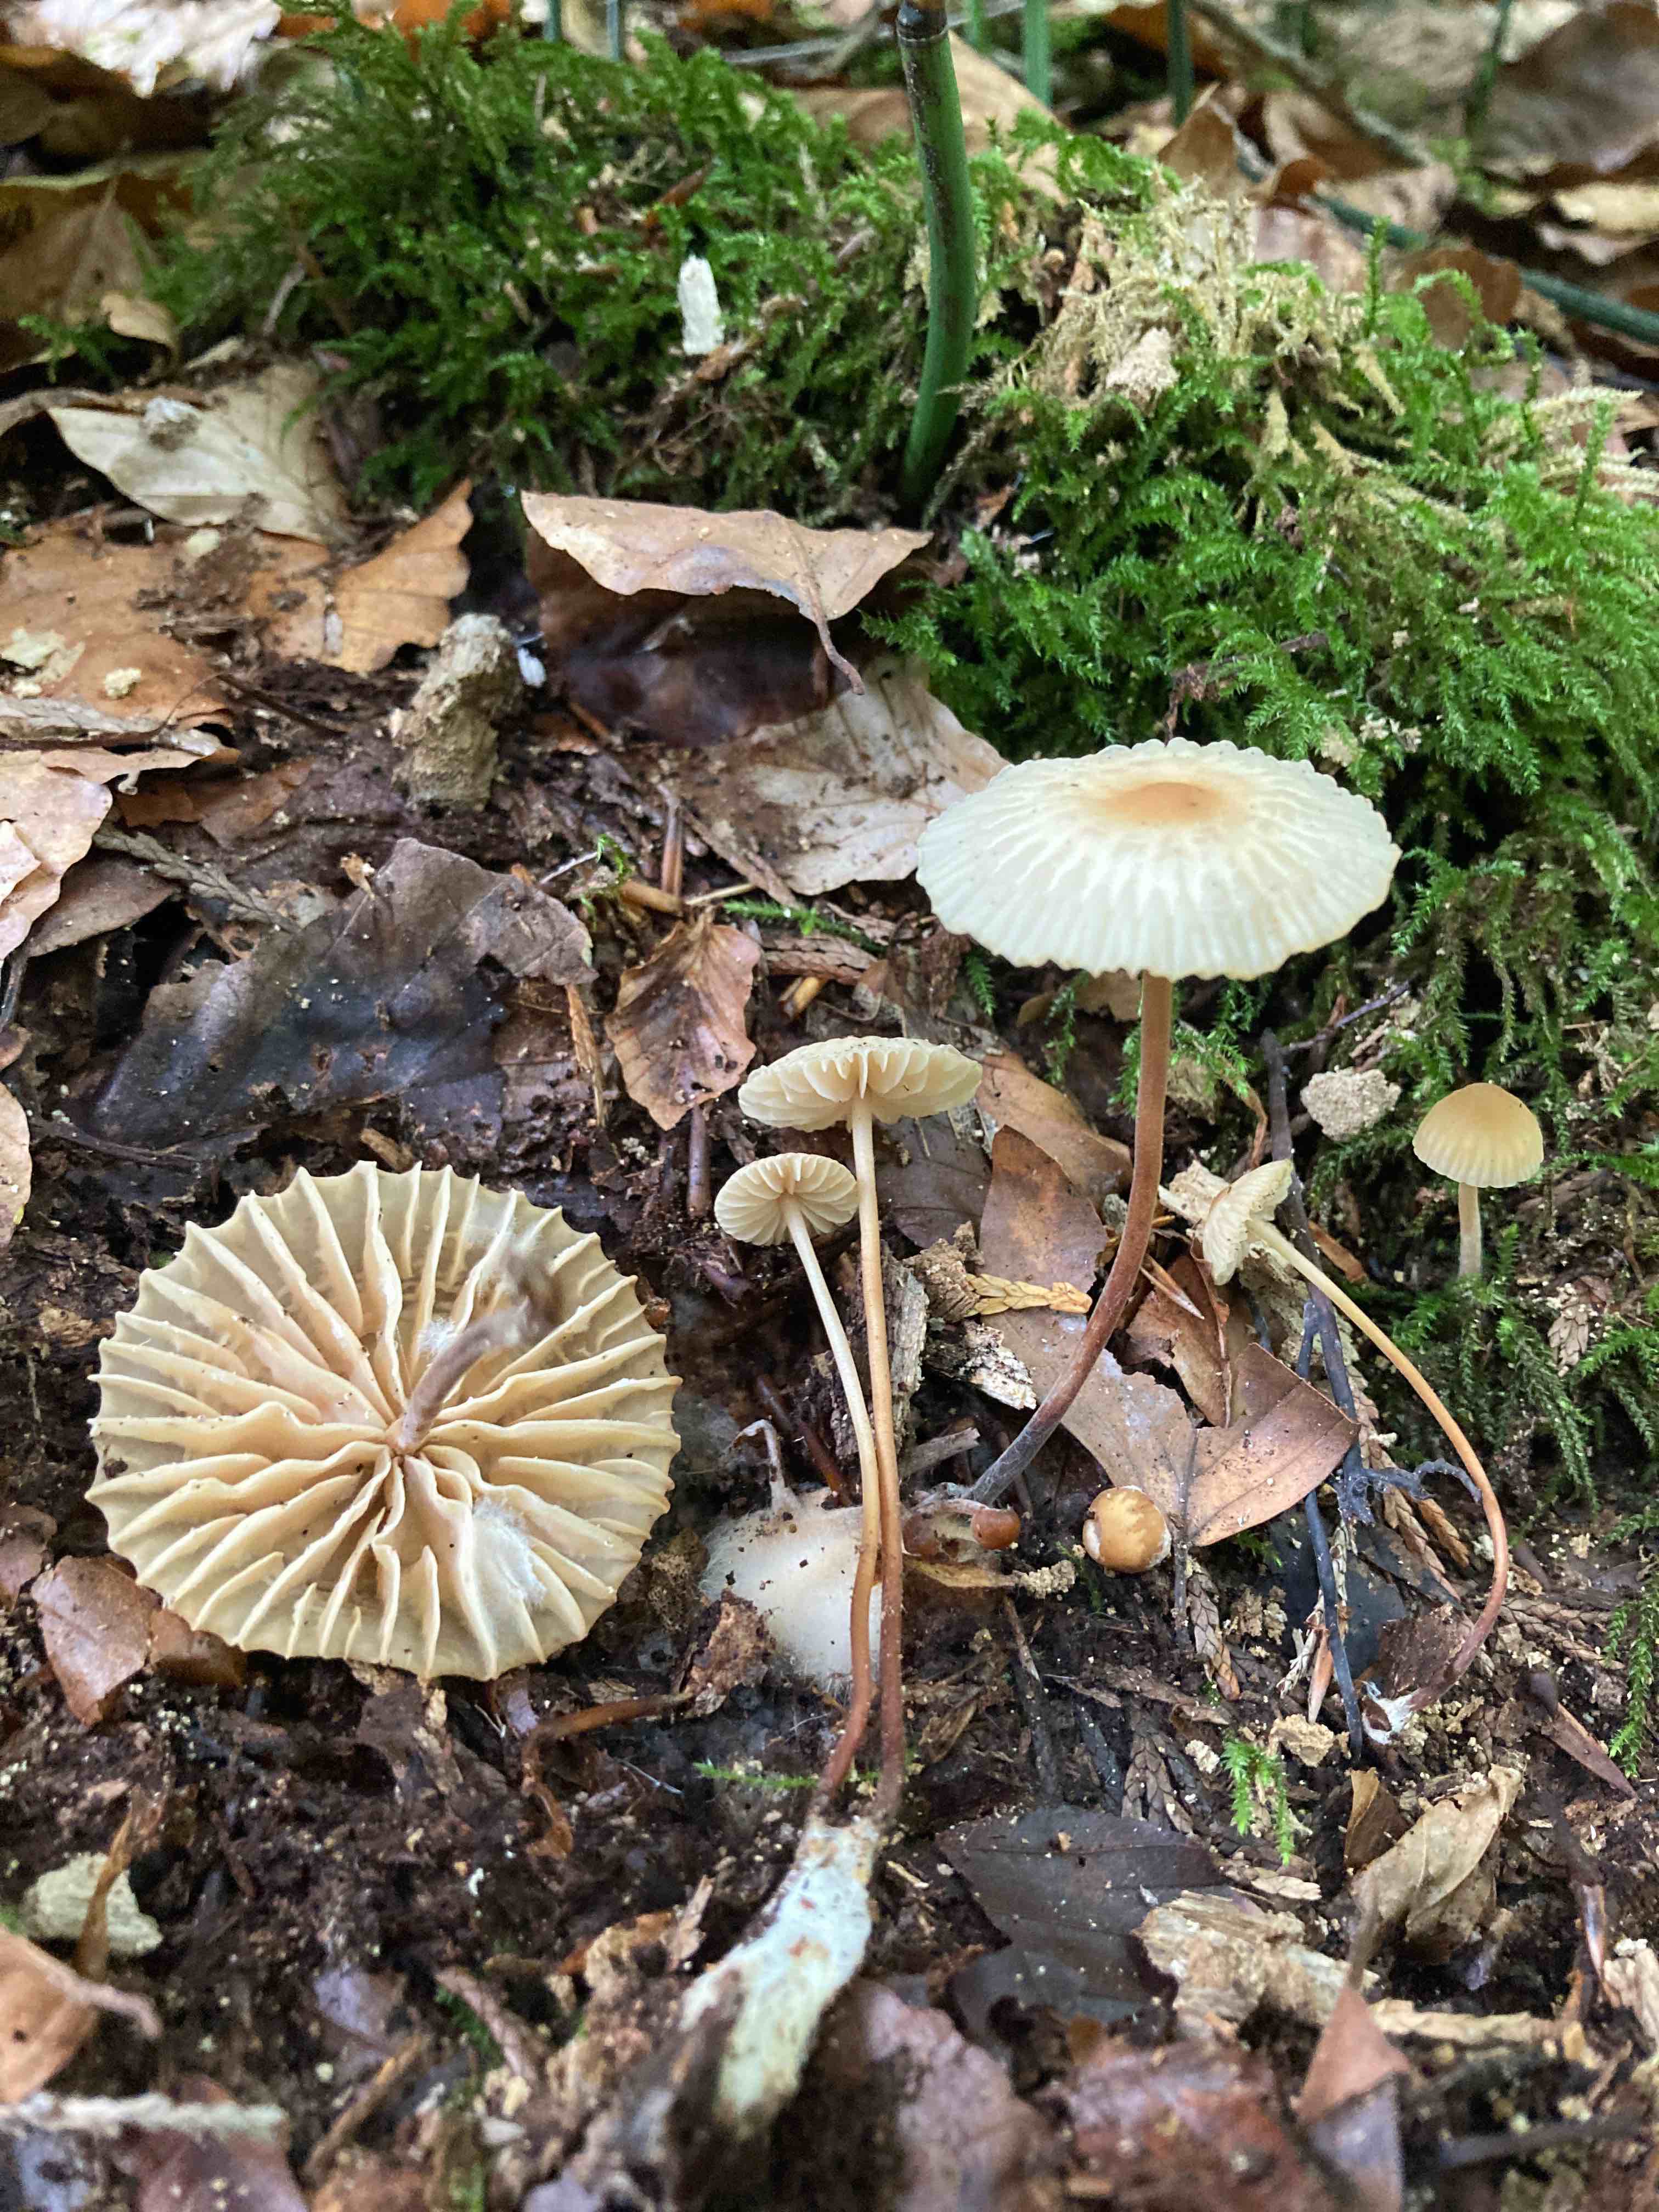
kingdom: Fungi
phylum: Basidiomycota
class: Agaricomycetes
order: Agaricales
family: Marasmiaceae
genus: Marasmius
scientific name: Marasmius torquescens
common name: filtfodet bruskhat
